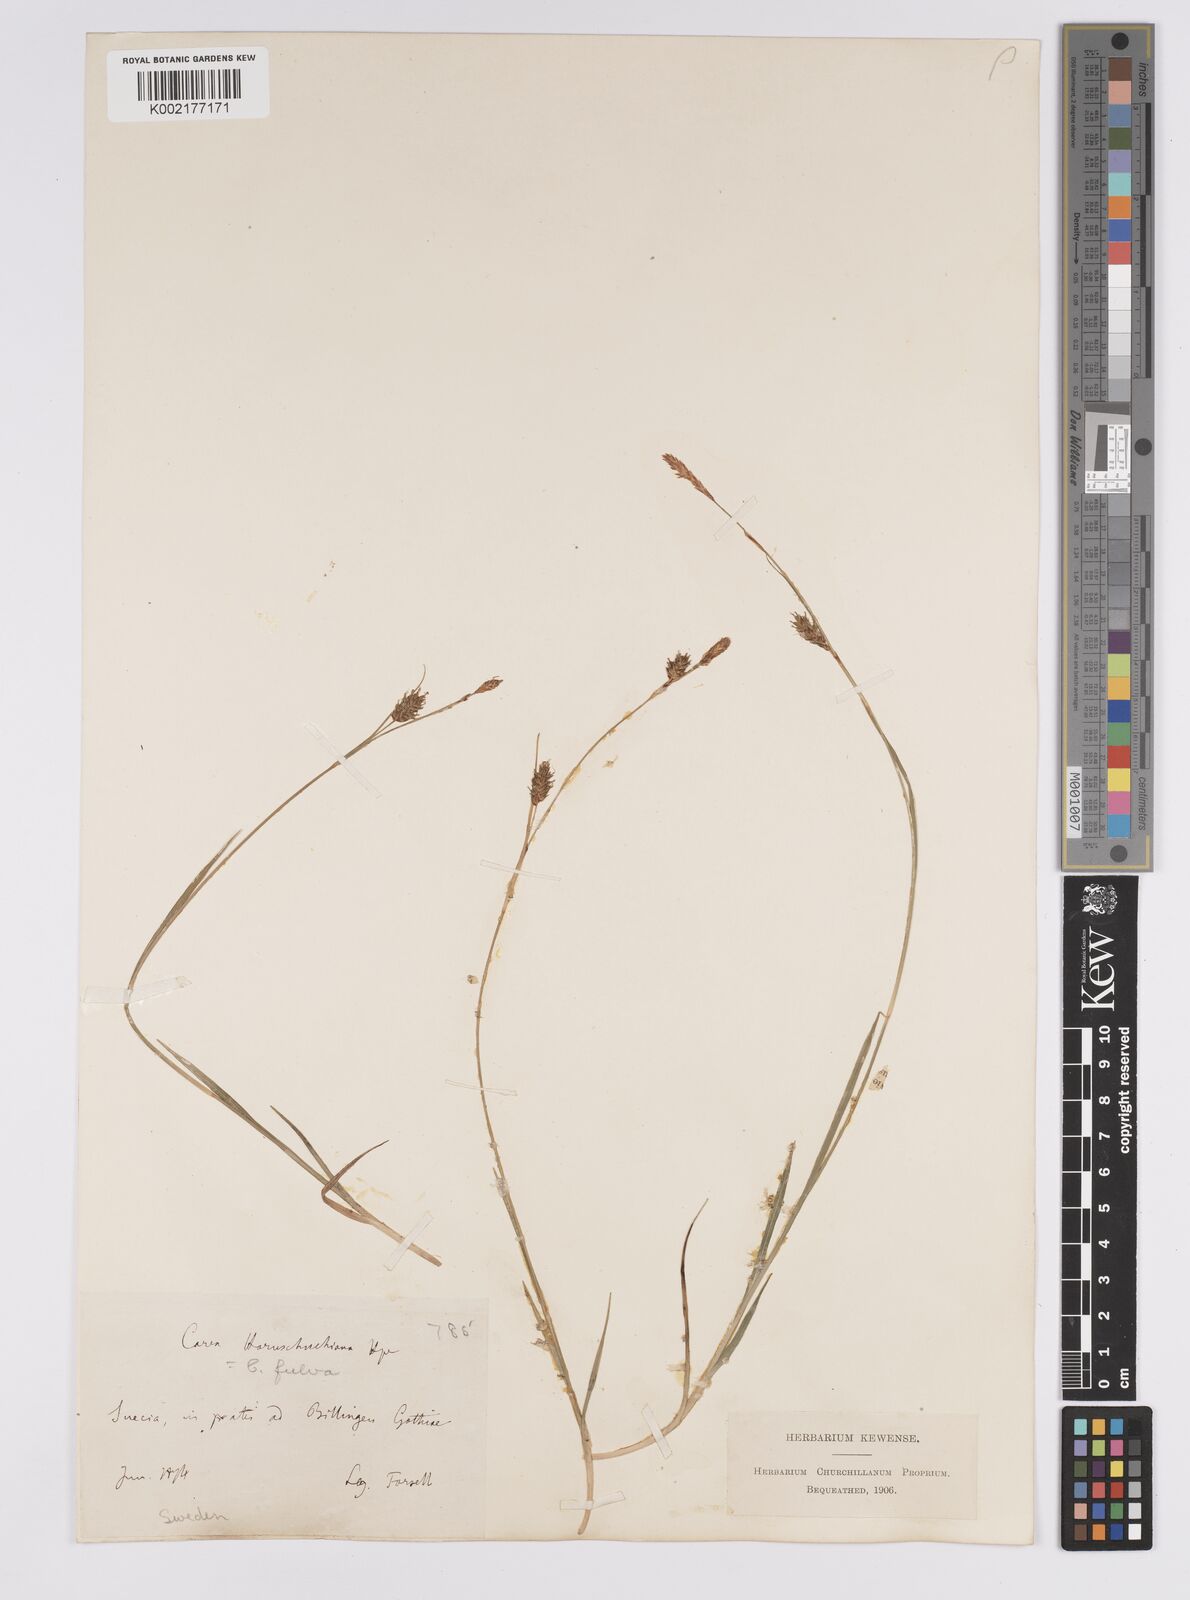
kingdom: Plantae
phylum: Tracheophyta
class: Liliopsida
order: Poales
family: Cyperaceae
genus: Carex
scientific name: Carex hostiana
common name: Tawny sedge
